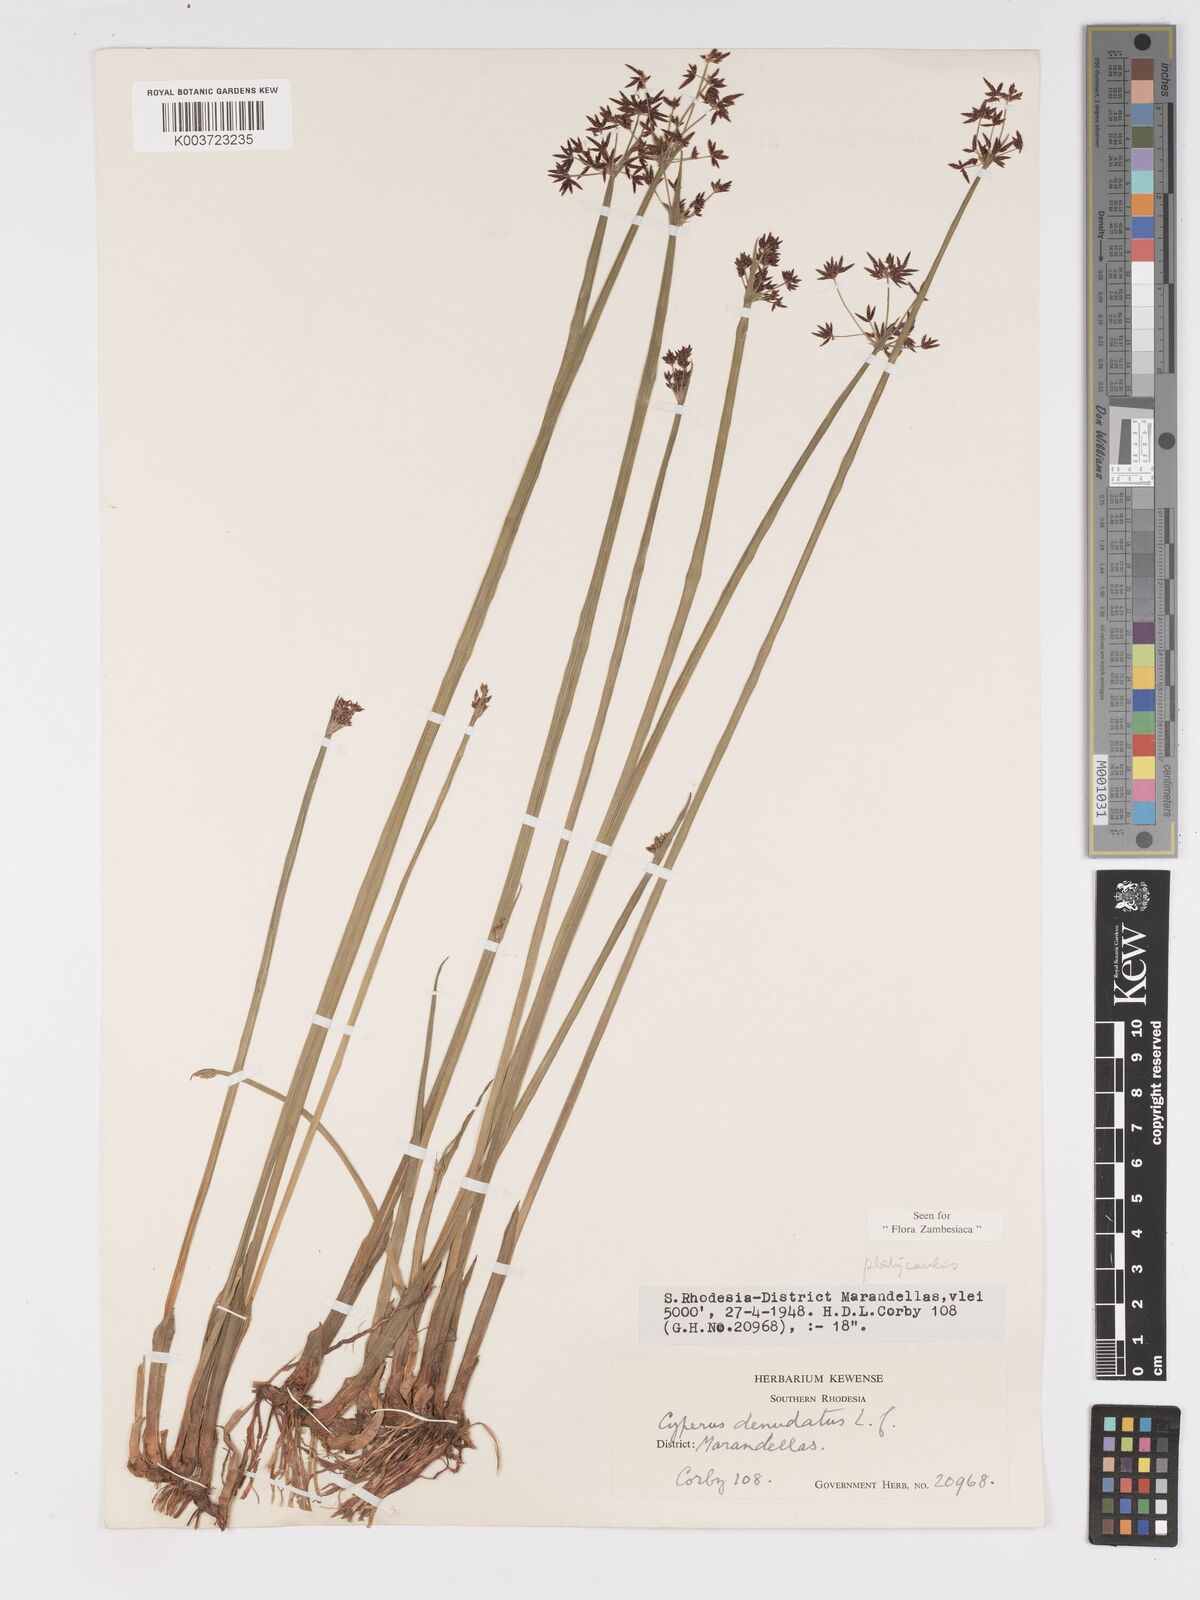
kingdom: Plantae
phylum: Tracheophyta
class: Liliopsida
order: Poales
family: Cyperaceae
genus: Cyperus
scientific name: Cyperus platycaulis
